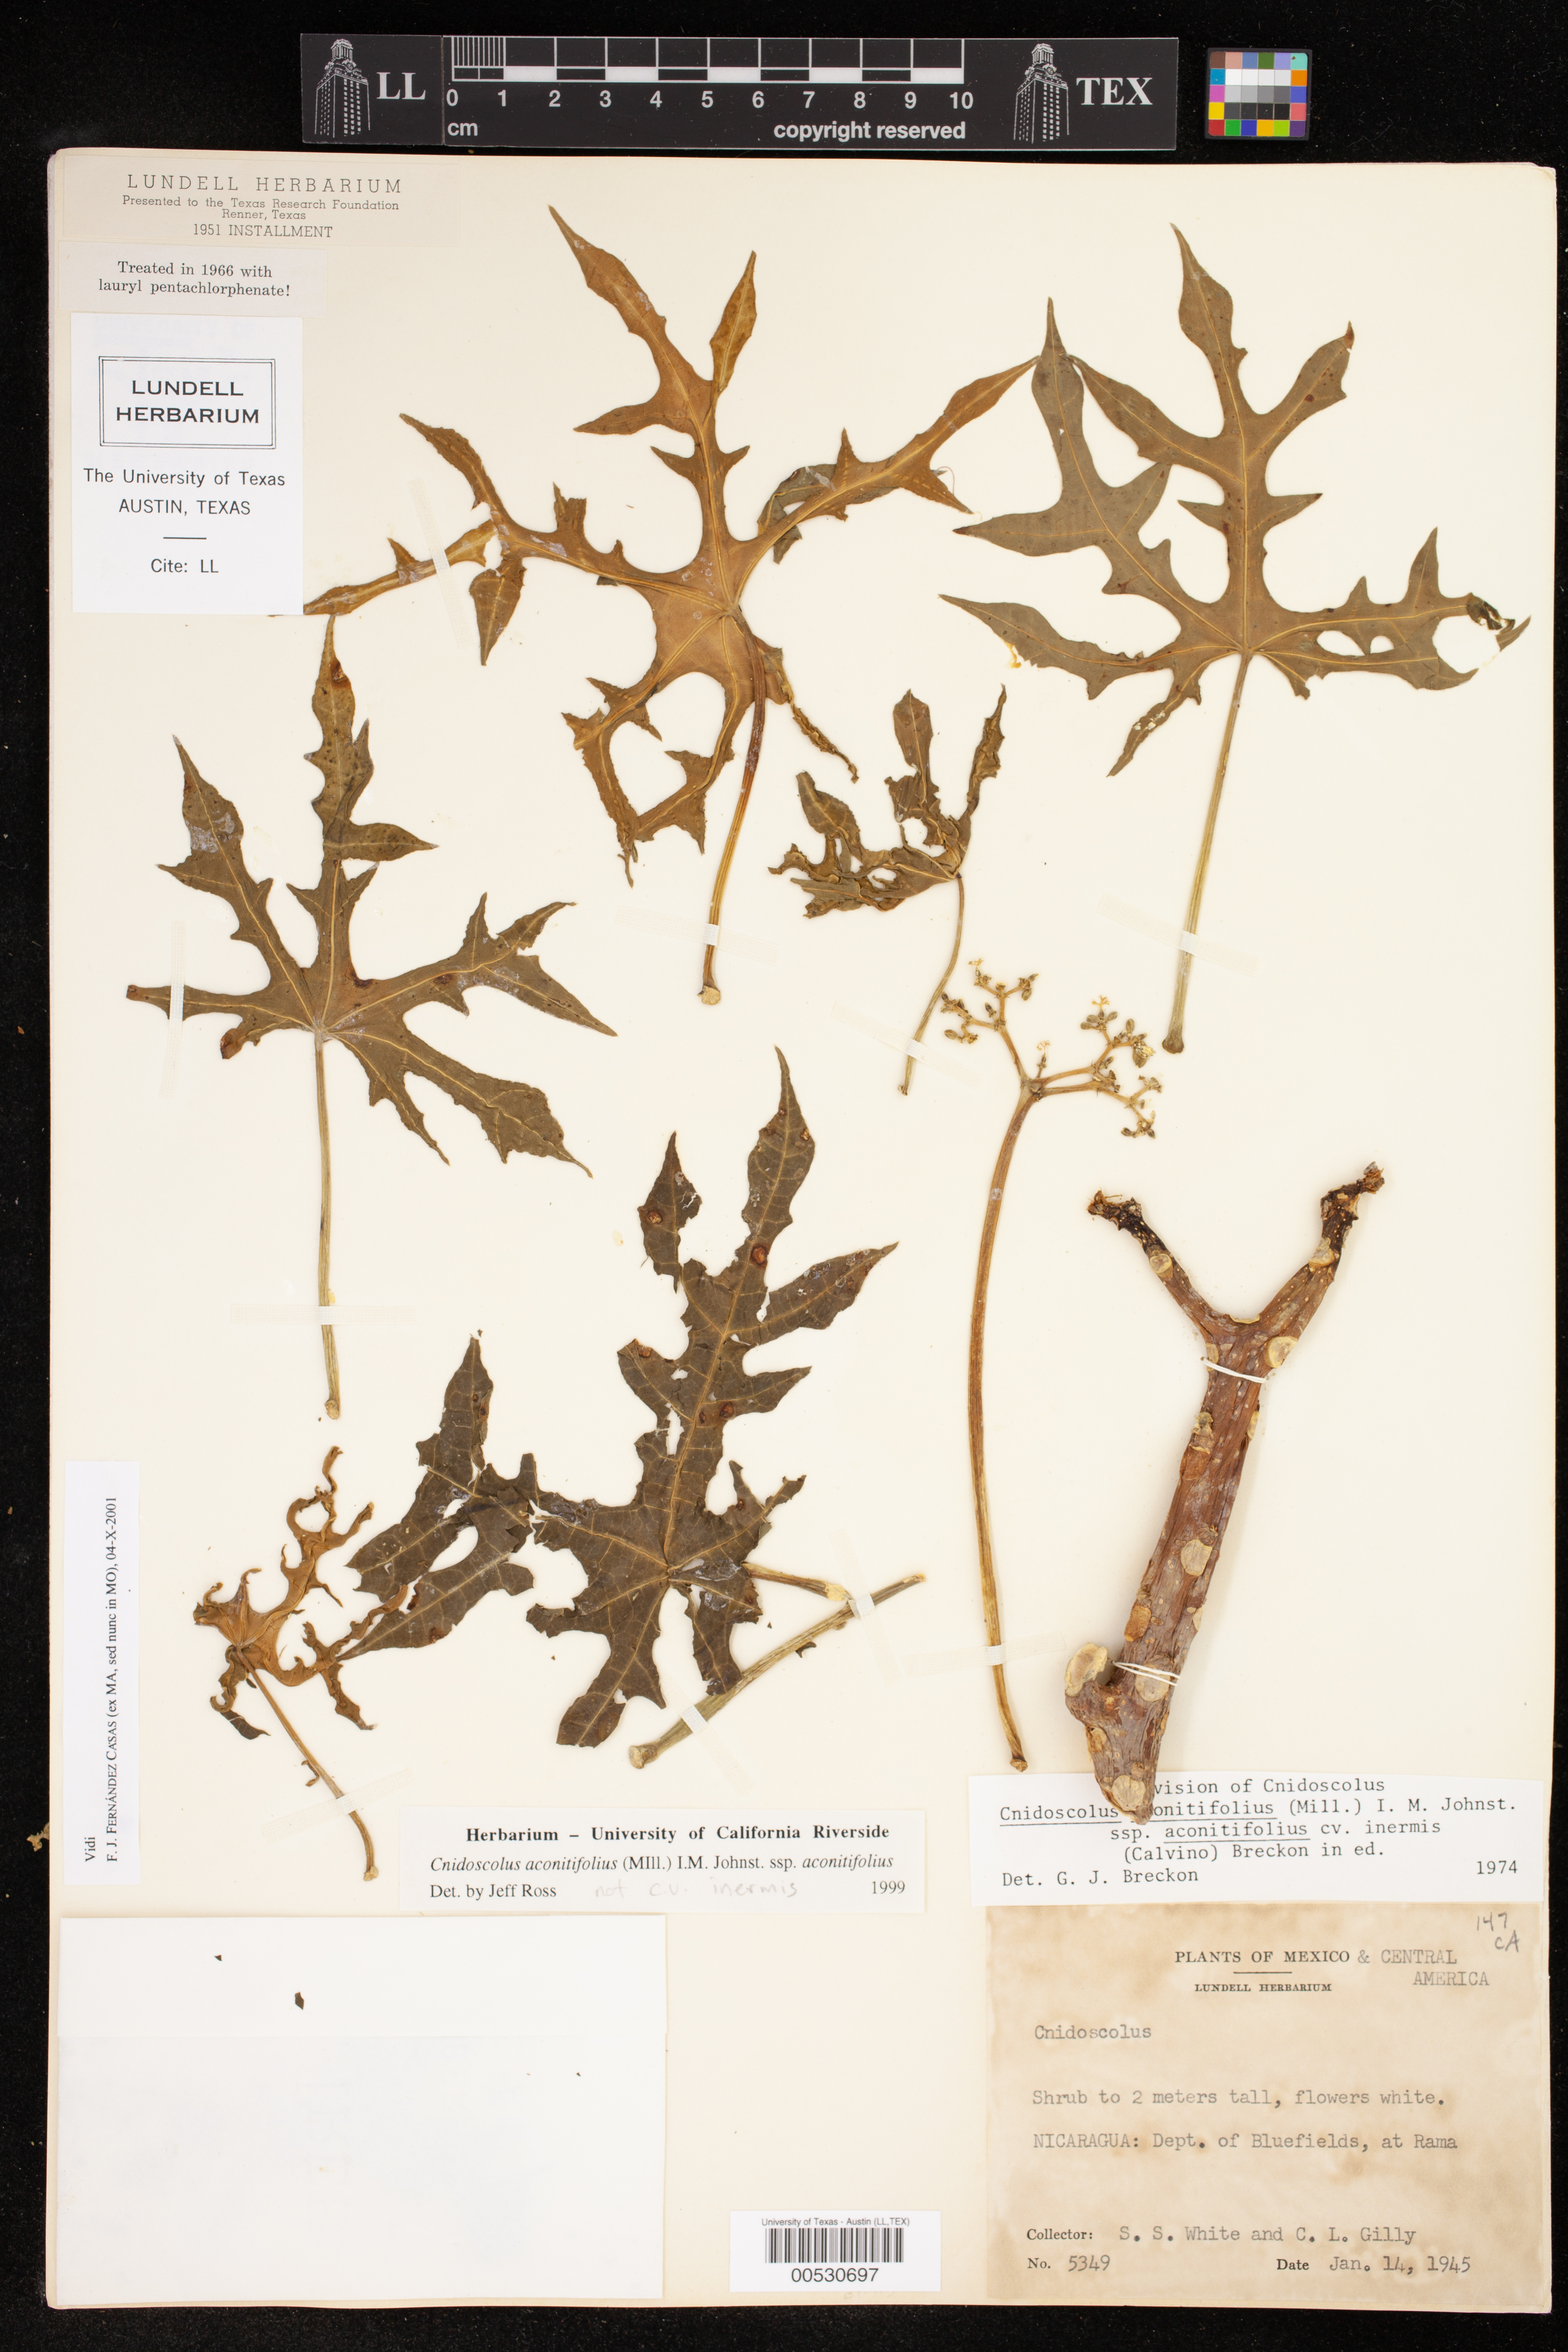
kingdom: Plantae
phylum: Tracheophyta
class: Magnoliopsida
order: Malpighiales
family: Euphorbiaceae
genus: Cnidoscolus
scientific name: Cnidoscolus aconitifolius
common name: Cabbage-star
